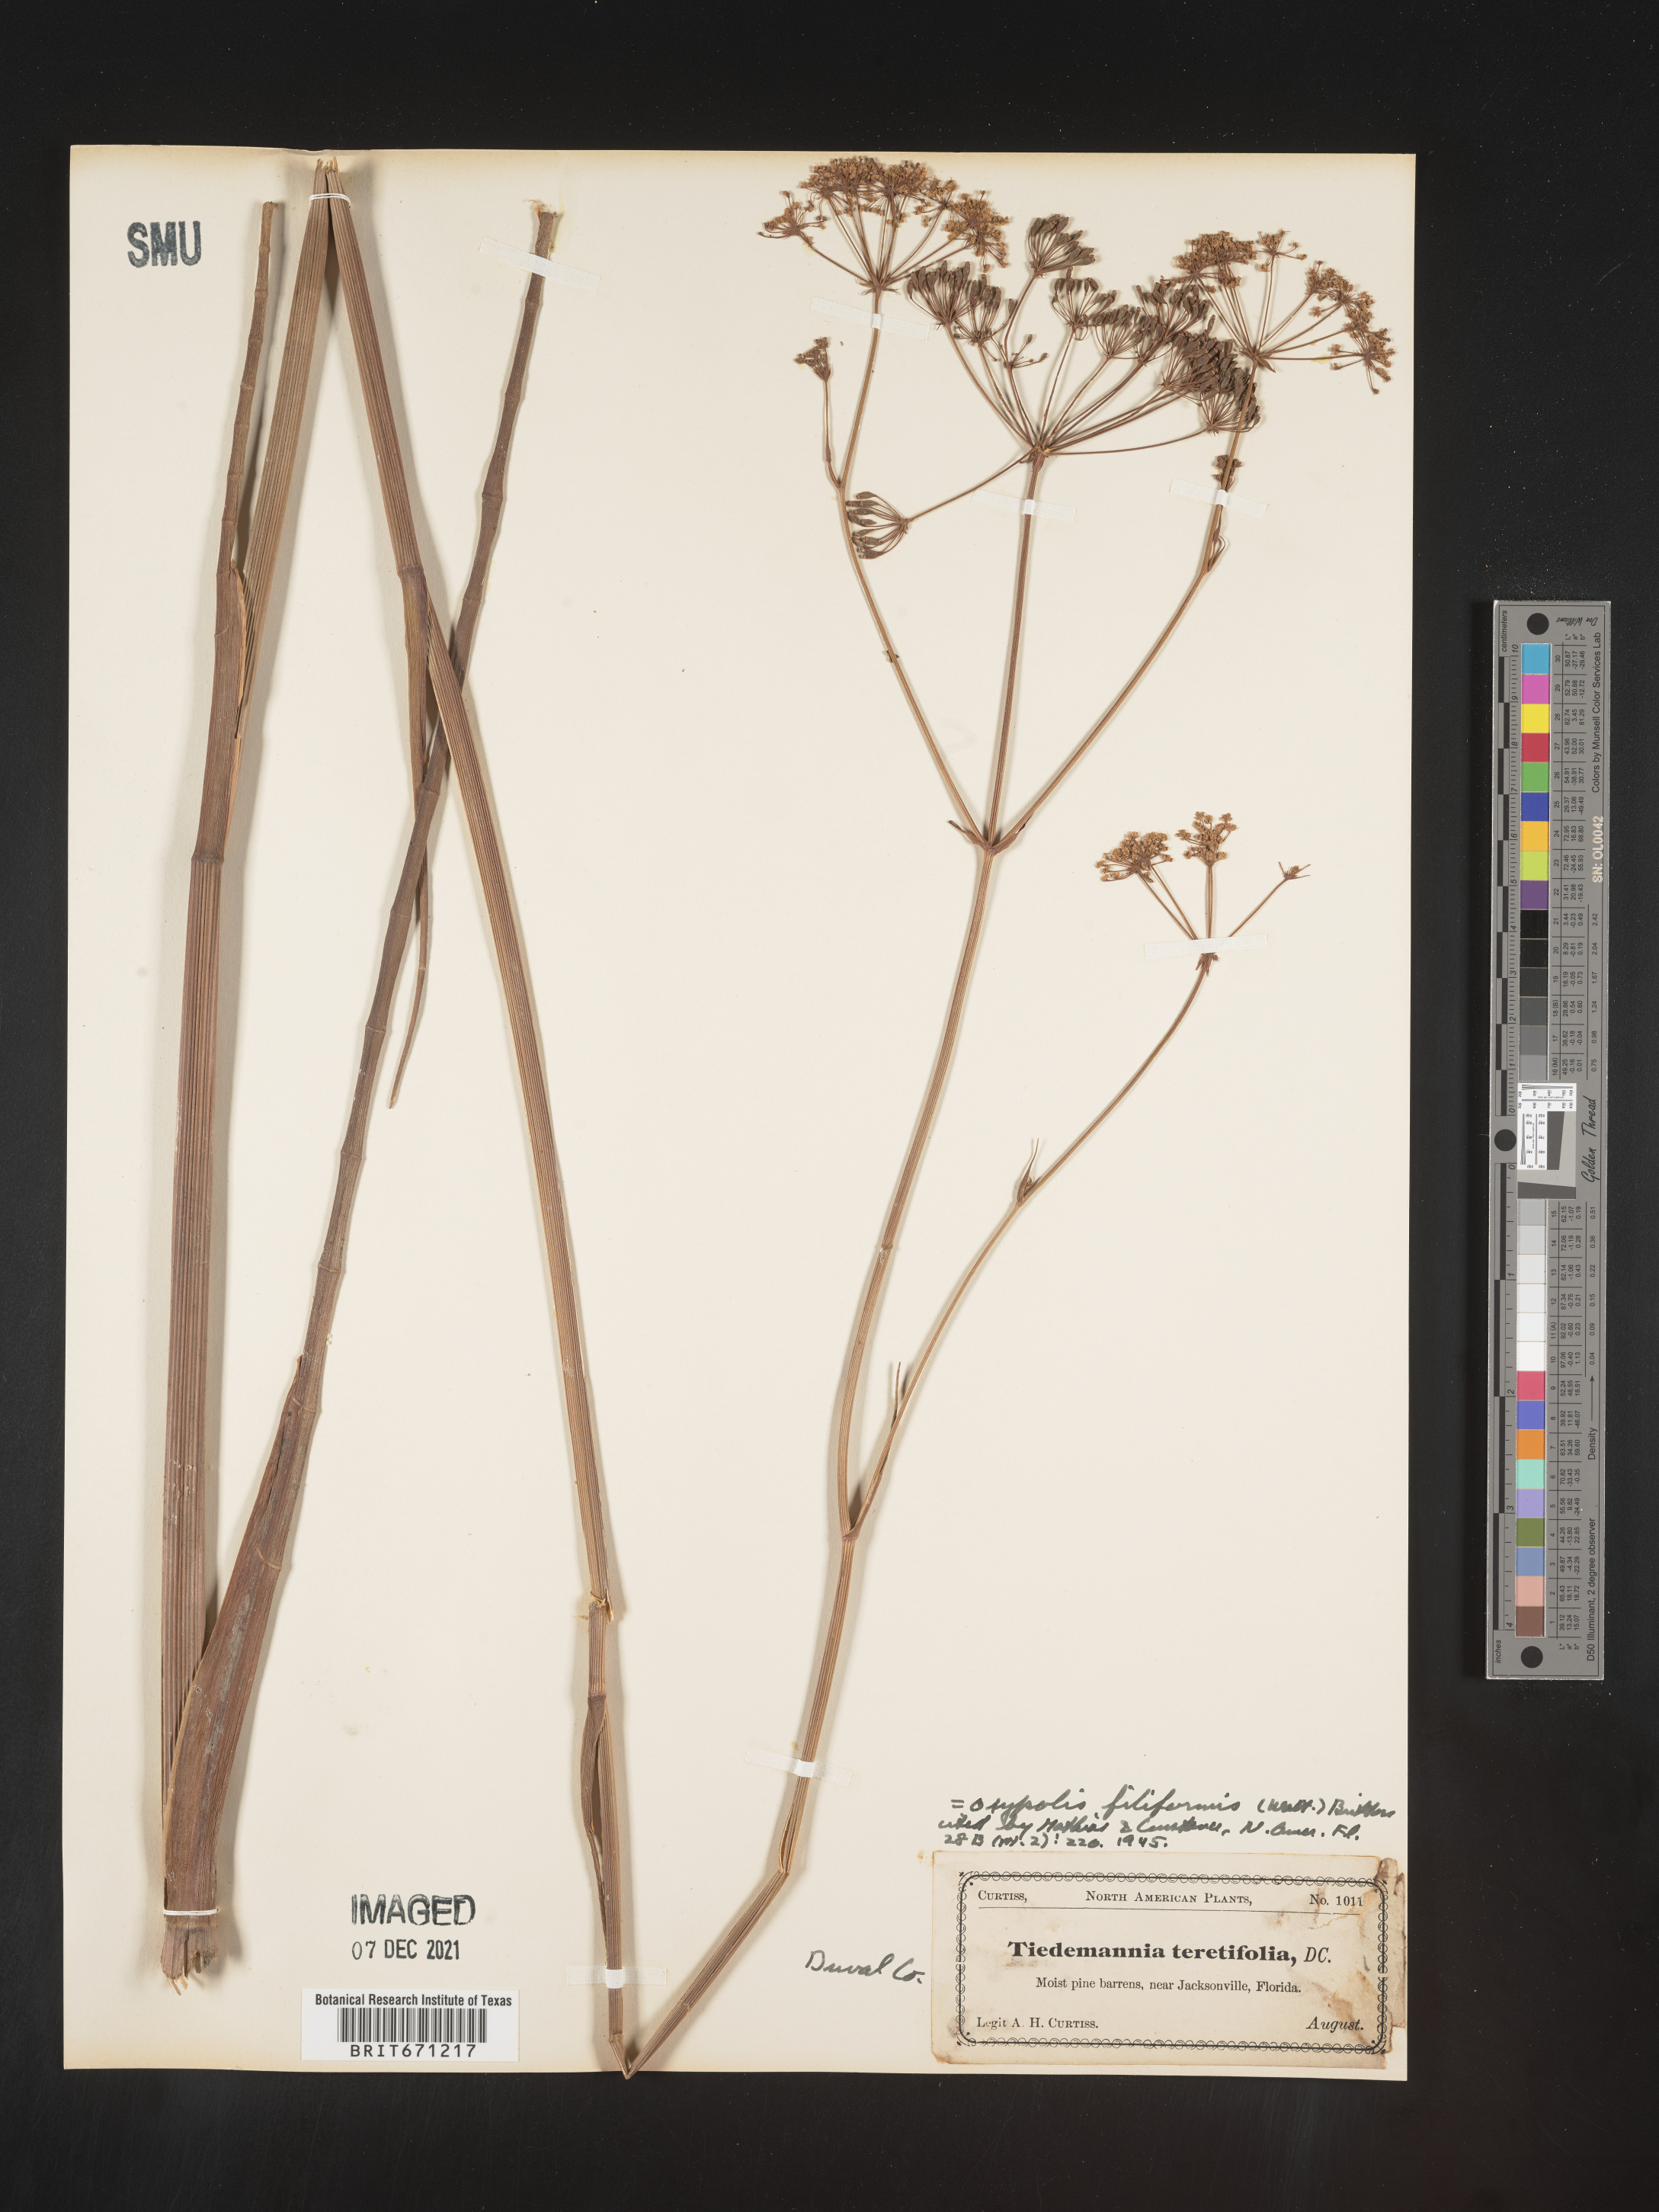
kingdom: Plantae
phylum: Tracheophyta
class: Magnoliopsida
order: Apiales
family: Apiaceae
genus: Tiedemannia
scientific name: Tiedemannia filiformis
